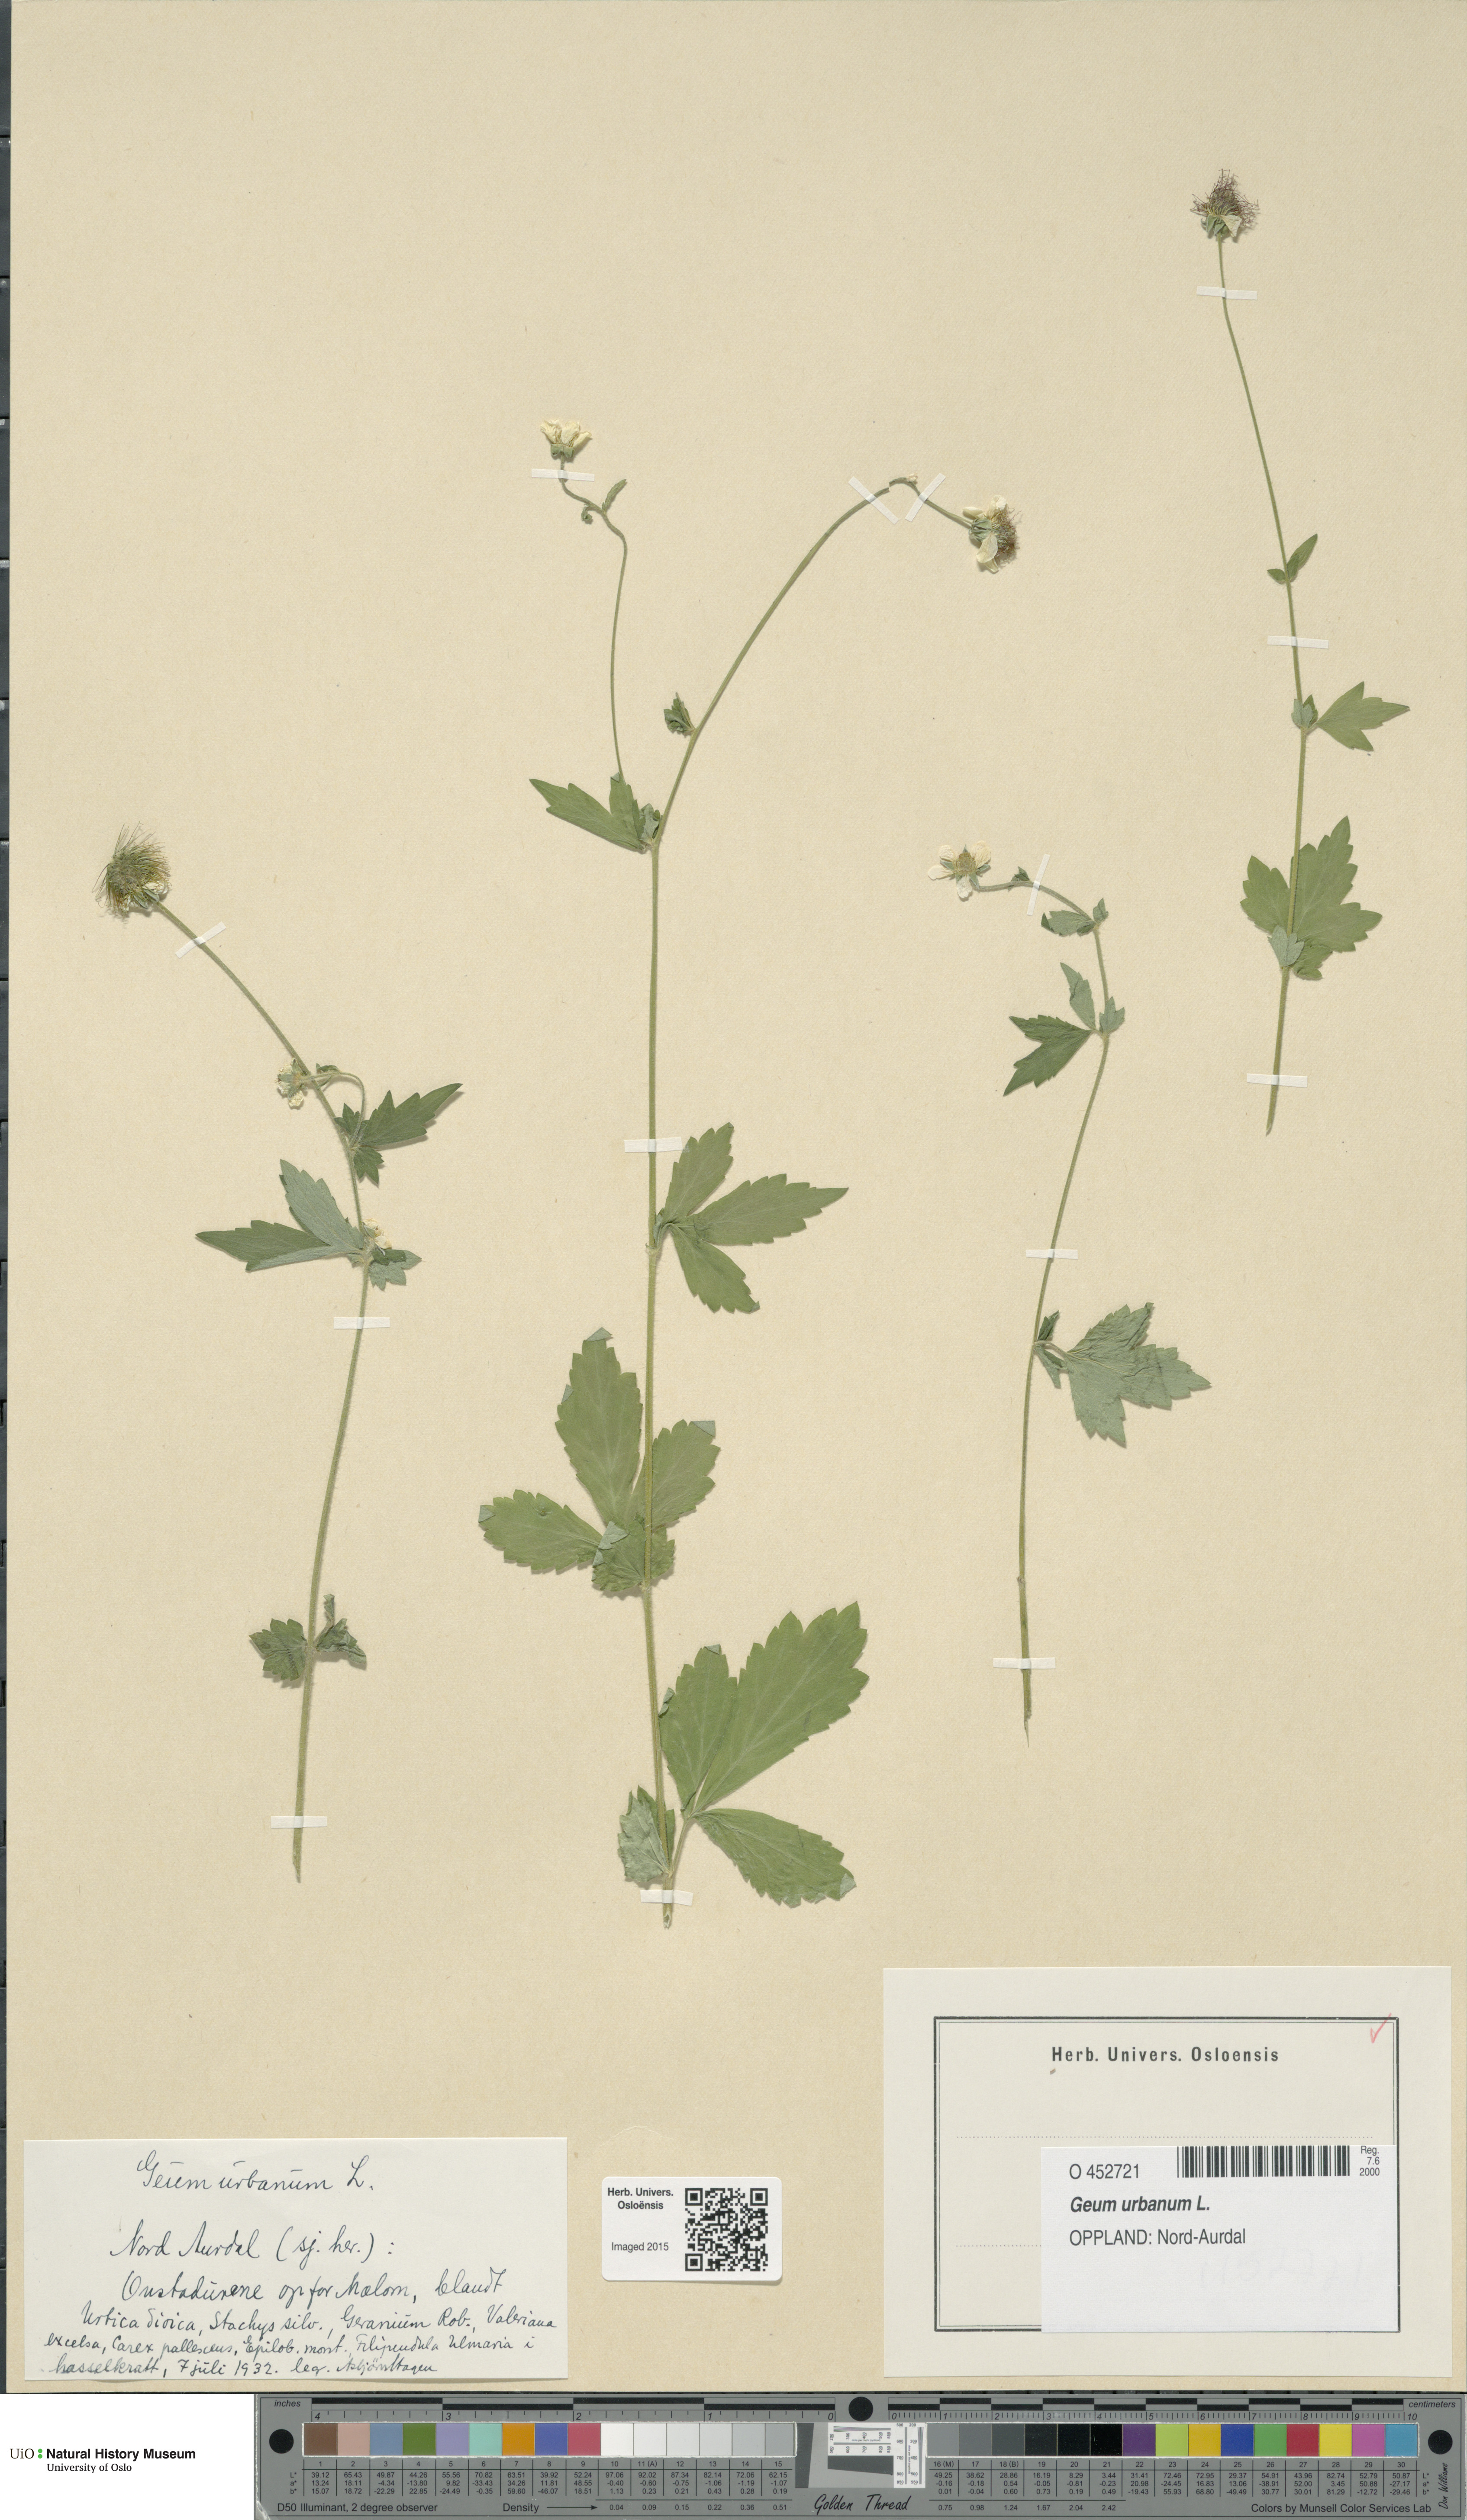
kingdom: Plantae
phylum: Tracheophyta
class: Magnoliopsida
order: Rosales
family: Rosaceae
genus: Geum
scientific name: Geum urbanum
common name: Wood avens
